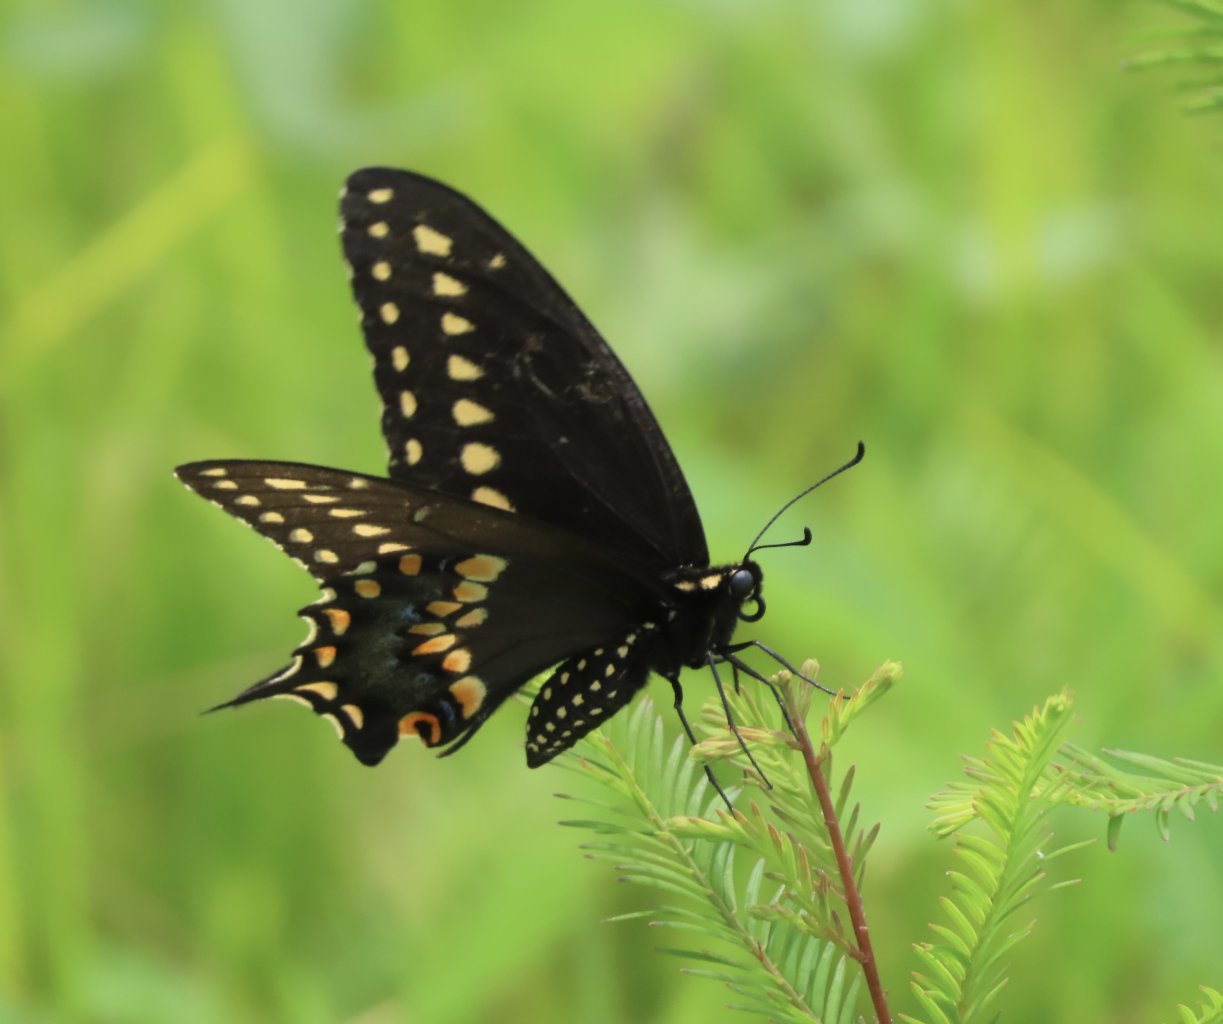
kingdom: Animalia
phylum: Arthropoda
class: Insecta
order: Lepidoptera
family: Papilionidae
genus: Papilio
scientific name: Papilio polyxenes
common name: Black Swallowtail
